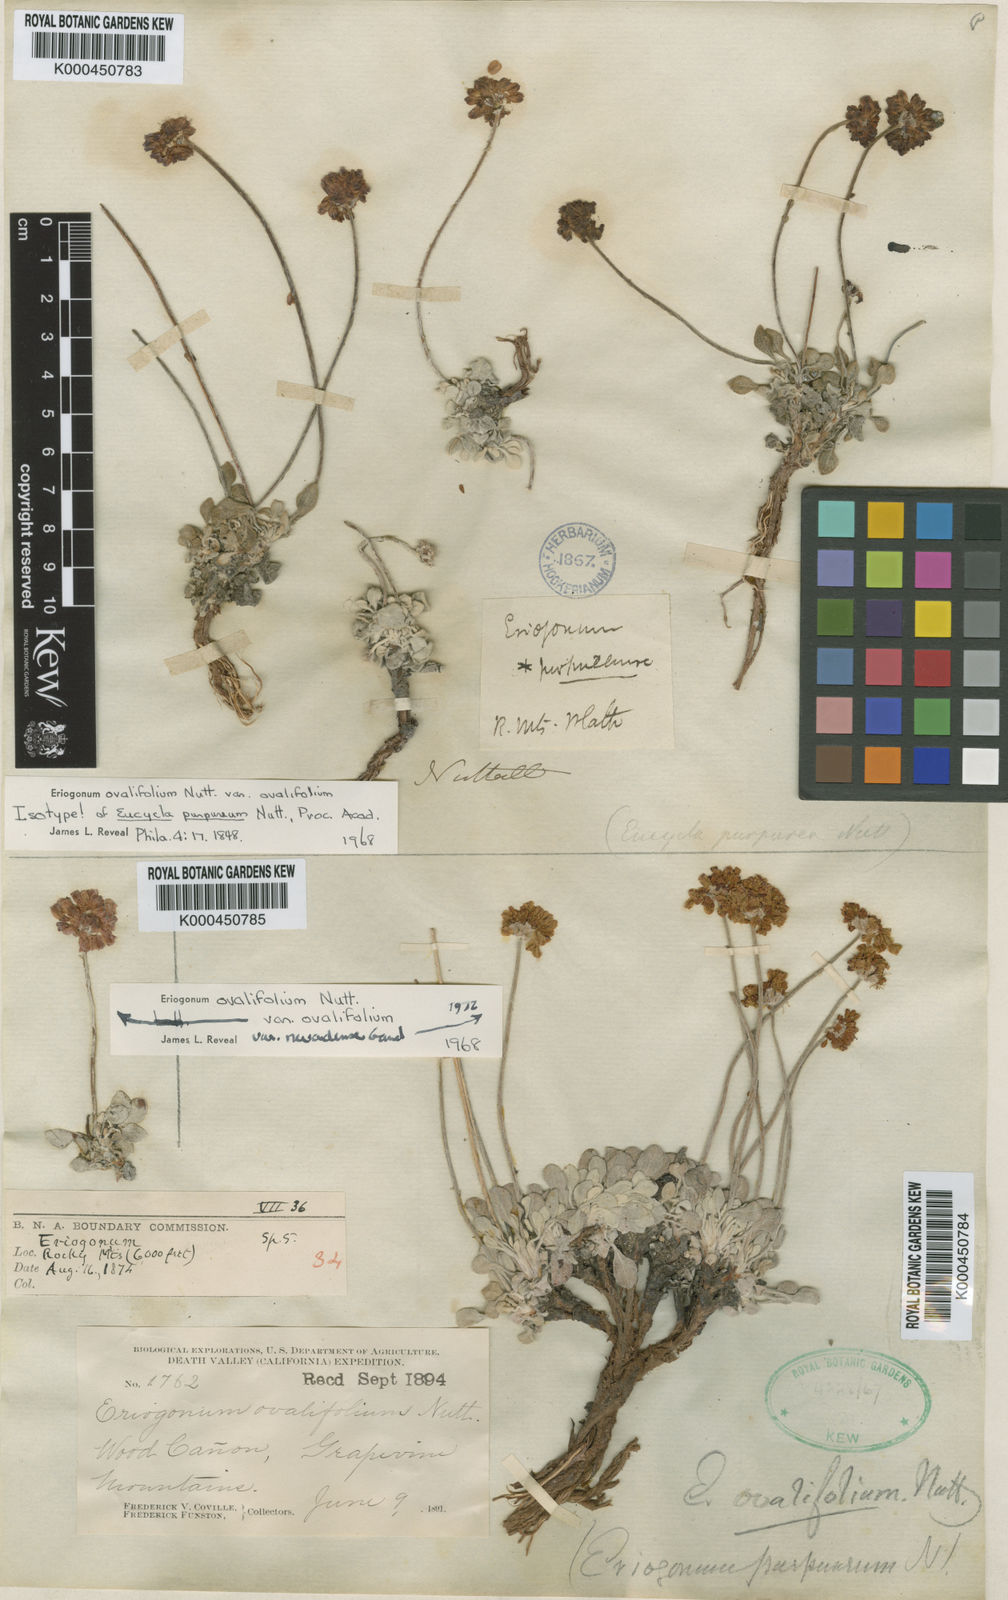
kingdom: Plantae
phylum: Tracheophyta
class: Magnoliopsida
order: Caryophyllales
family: Polygonaceae
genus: Eriogonum
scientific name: Eriogonum ovalifolium
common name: Cushion buckwheat
